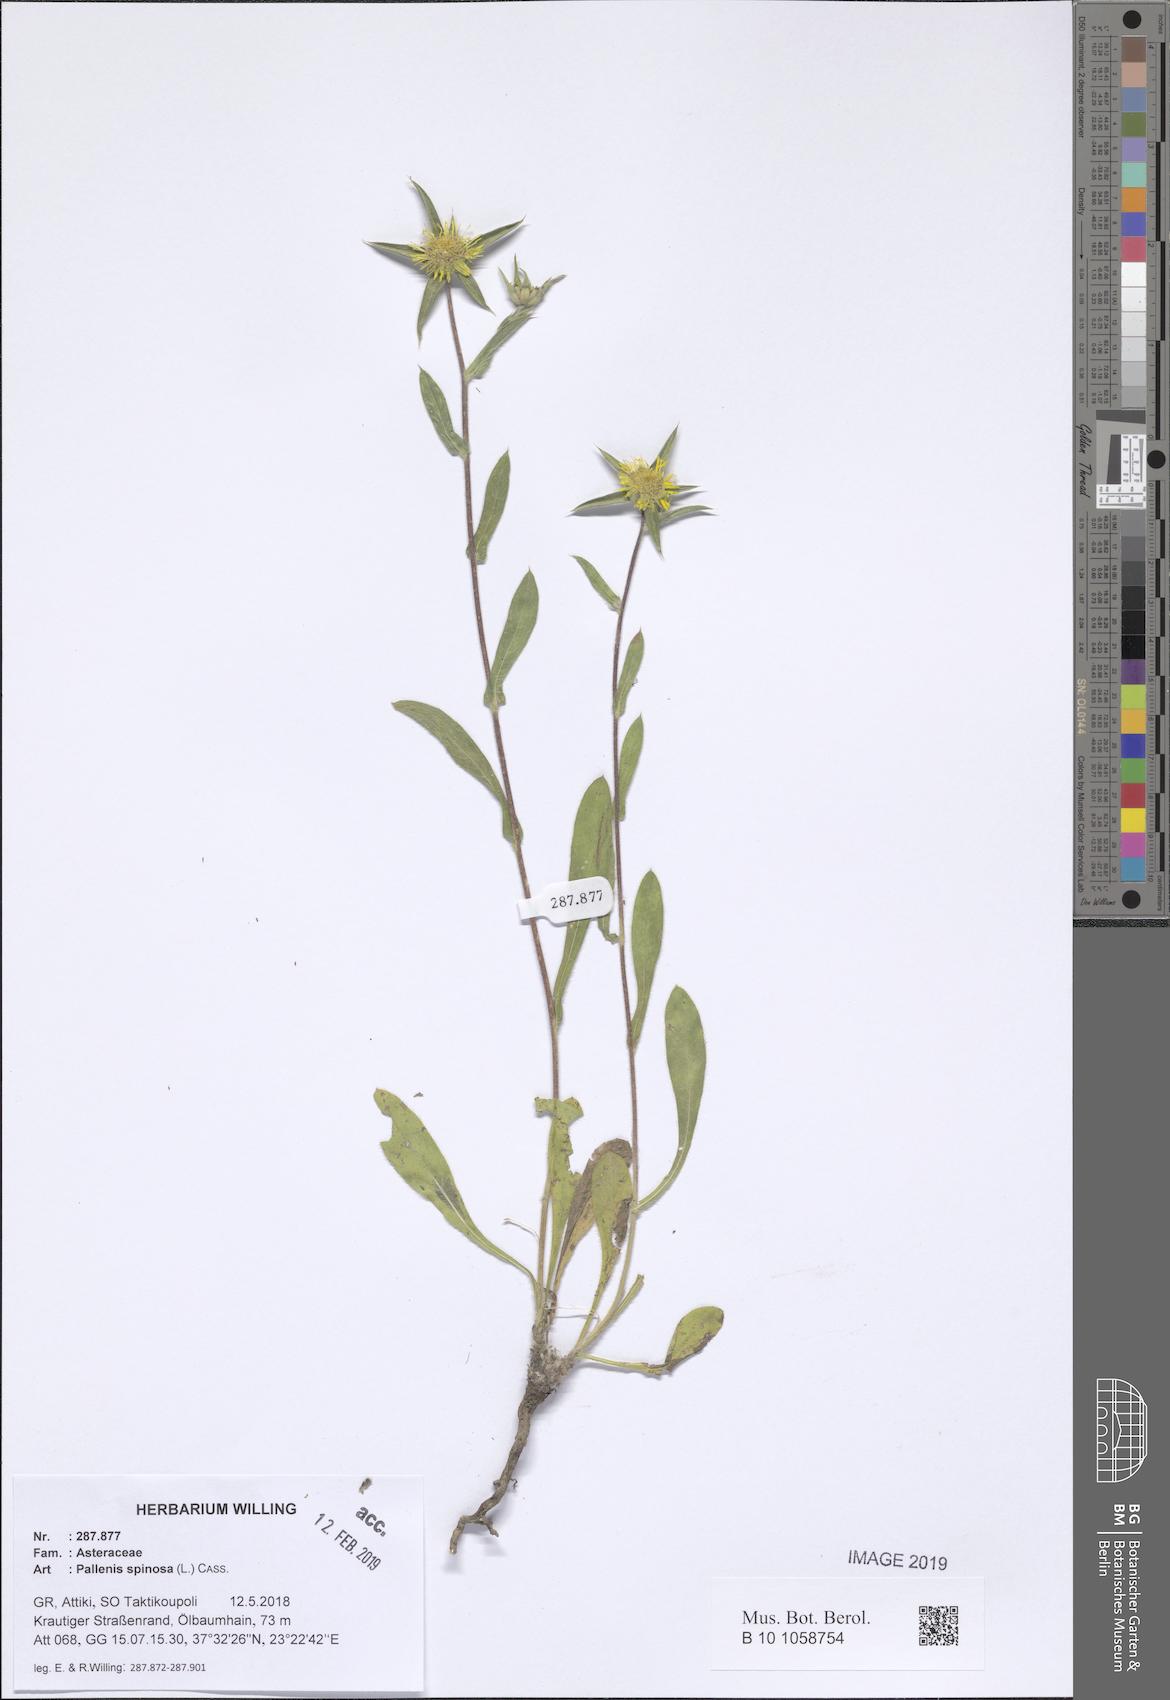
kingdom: Plantae
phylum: Tracheophyta
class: Magnoliopsida
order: Asterales
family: Asteraceae
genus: Pallenis
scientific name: Pallenis spinosa
